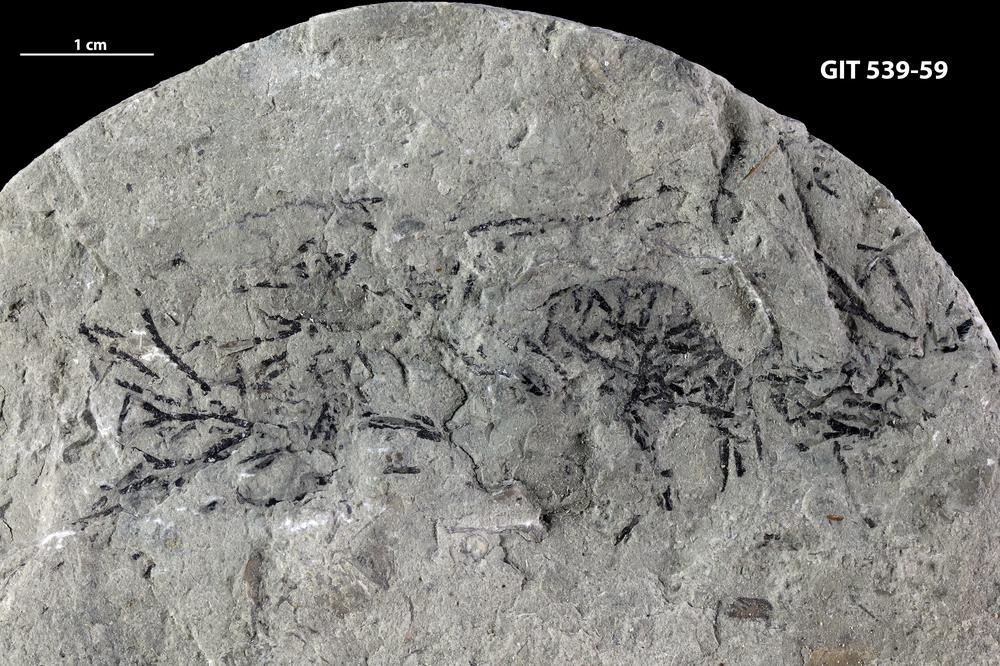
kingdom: Animalia
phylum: Hemichordata
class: Pterobranchia
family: Dendrograptidae
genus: Dendrograptus
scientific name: Dendrograptus
